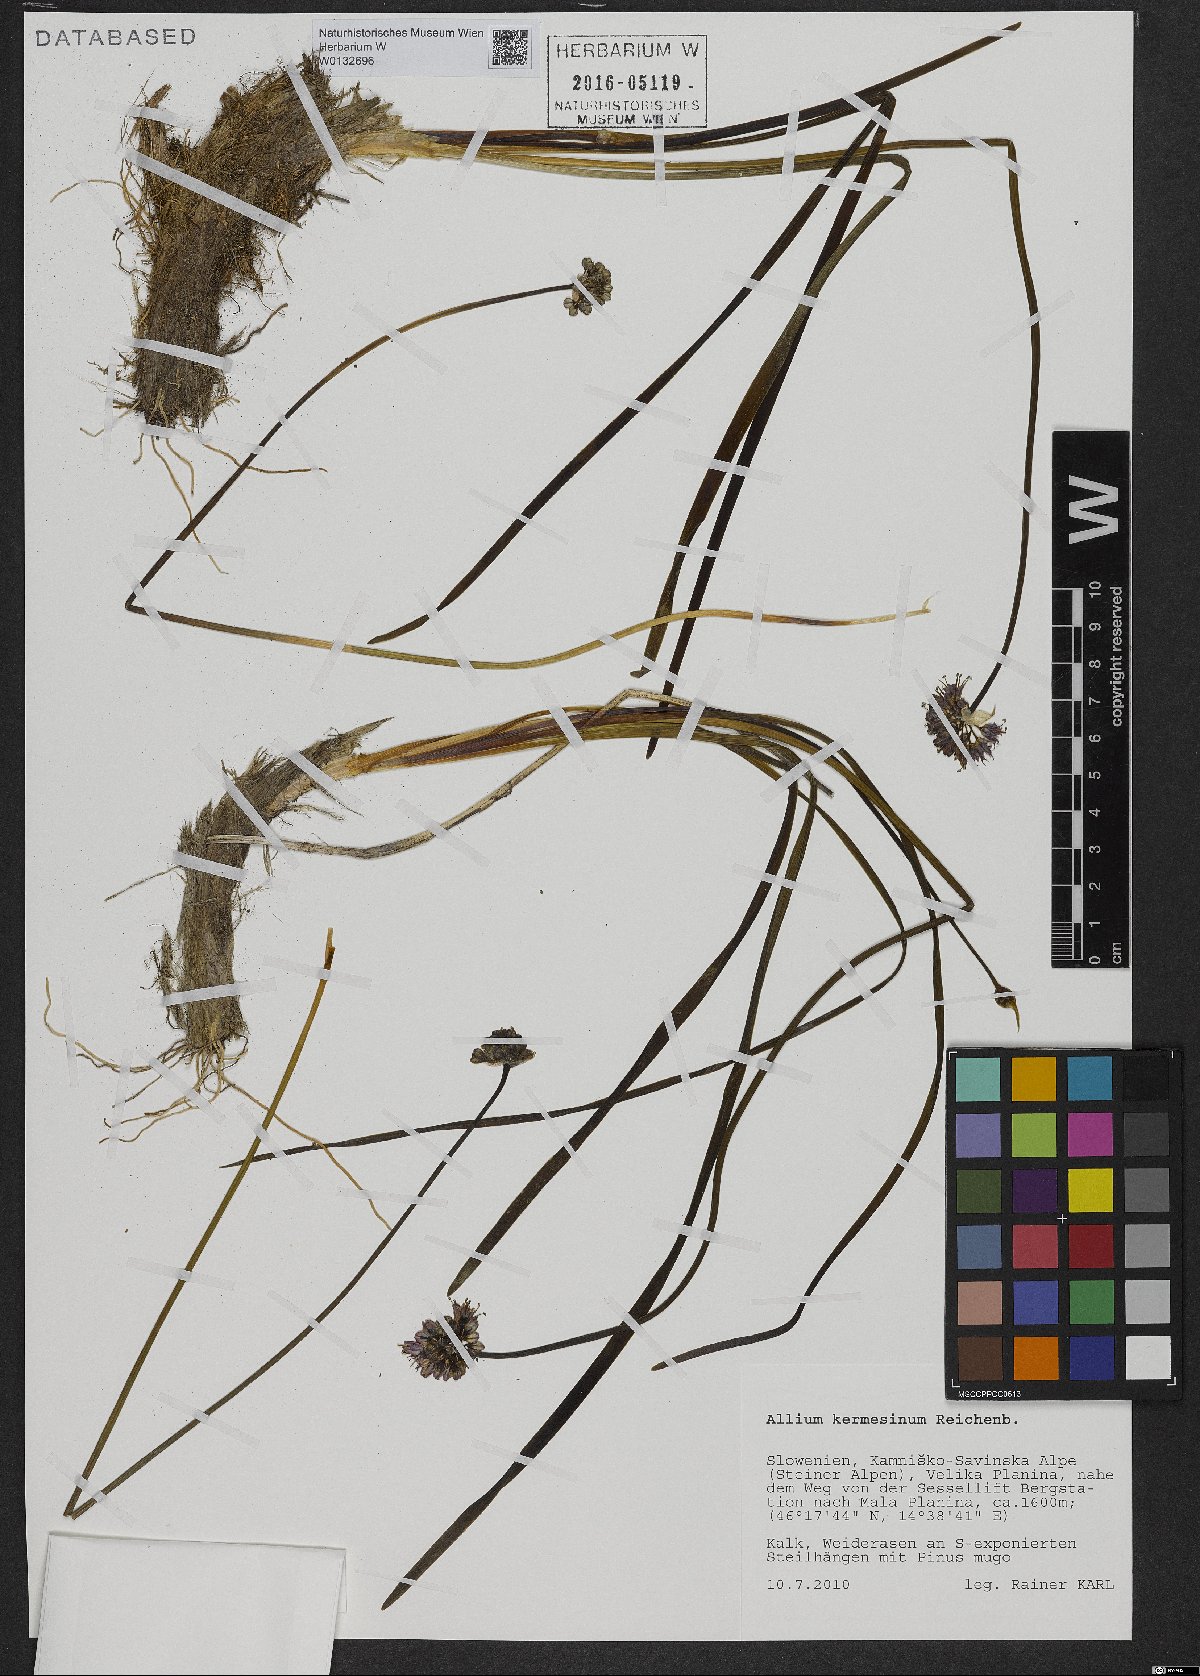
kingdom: Plantae
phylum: Tracheophyta
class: Liliopsida
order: Asparagales
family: Amaryllidaceae
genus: Allium
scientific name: Allium kermesinum
